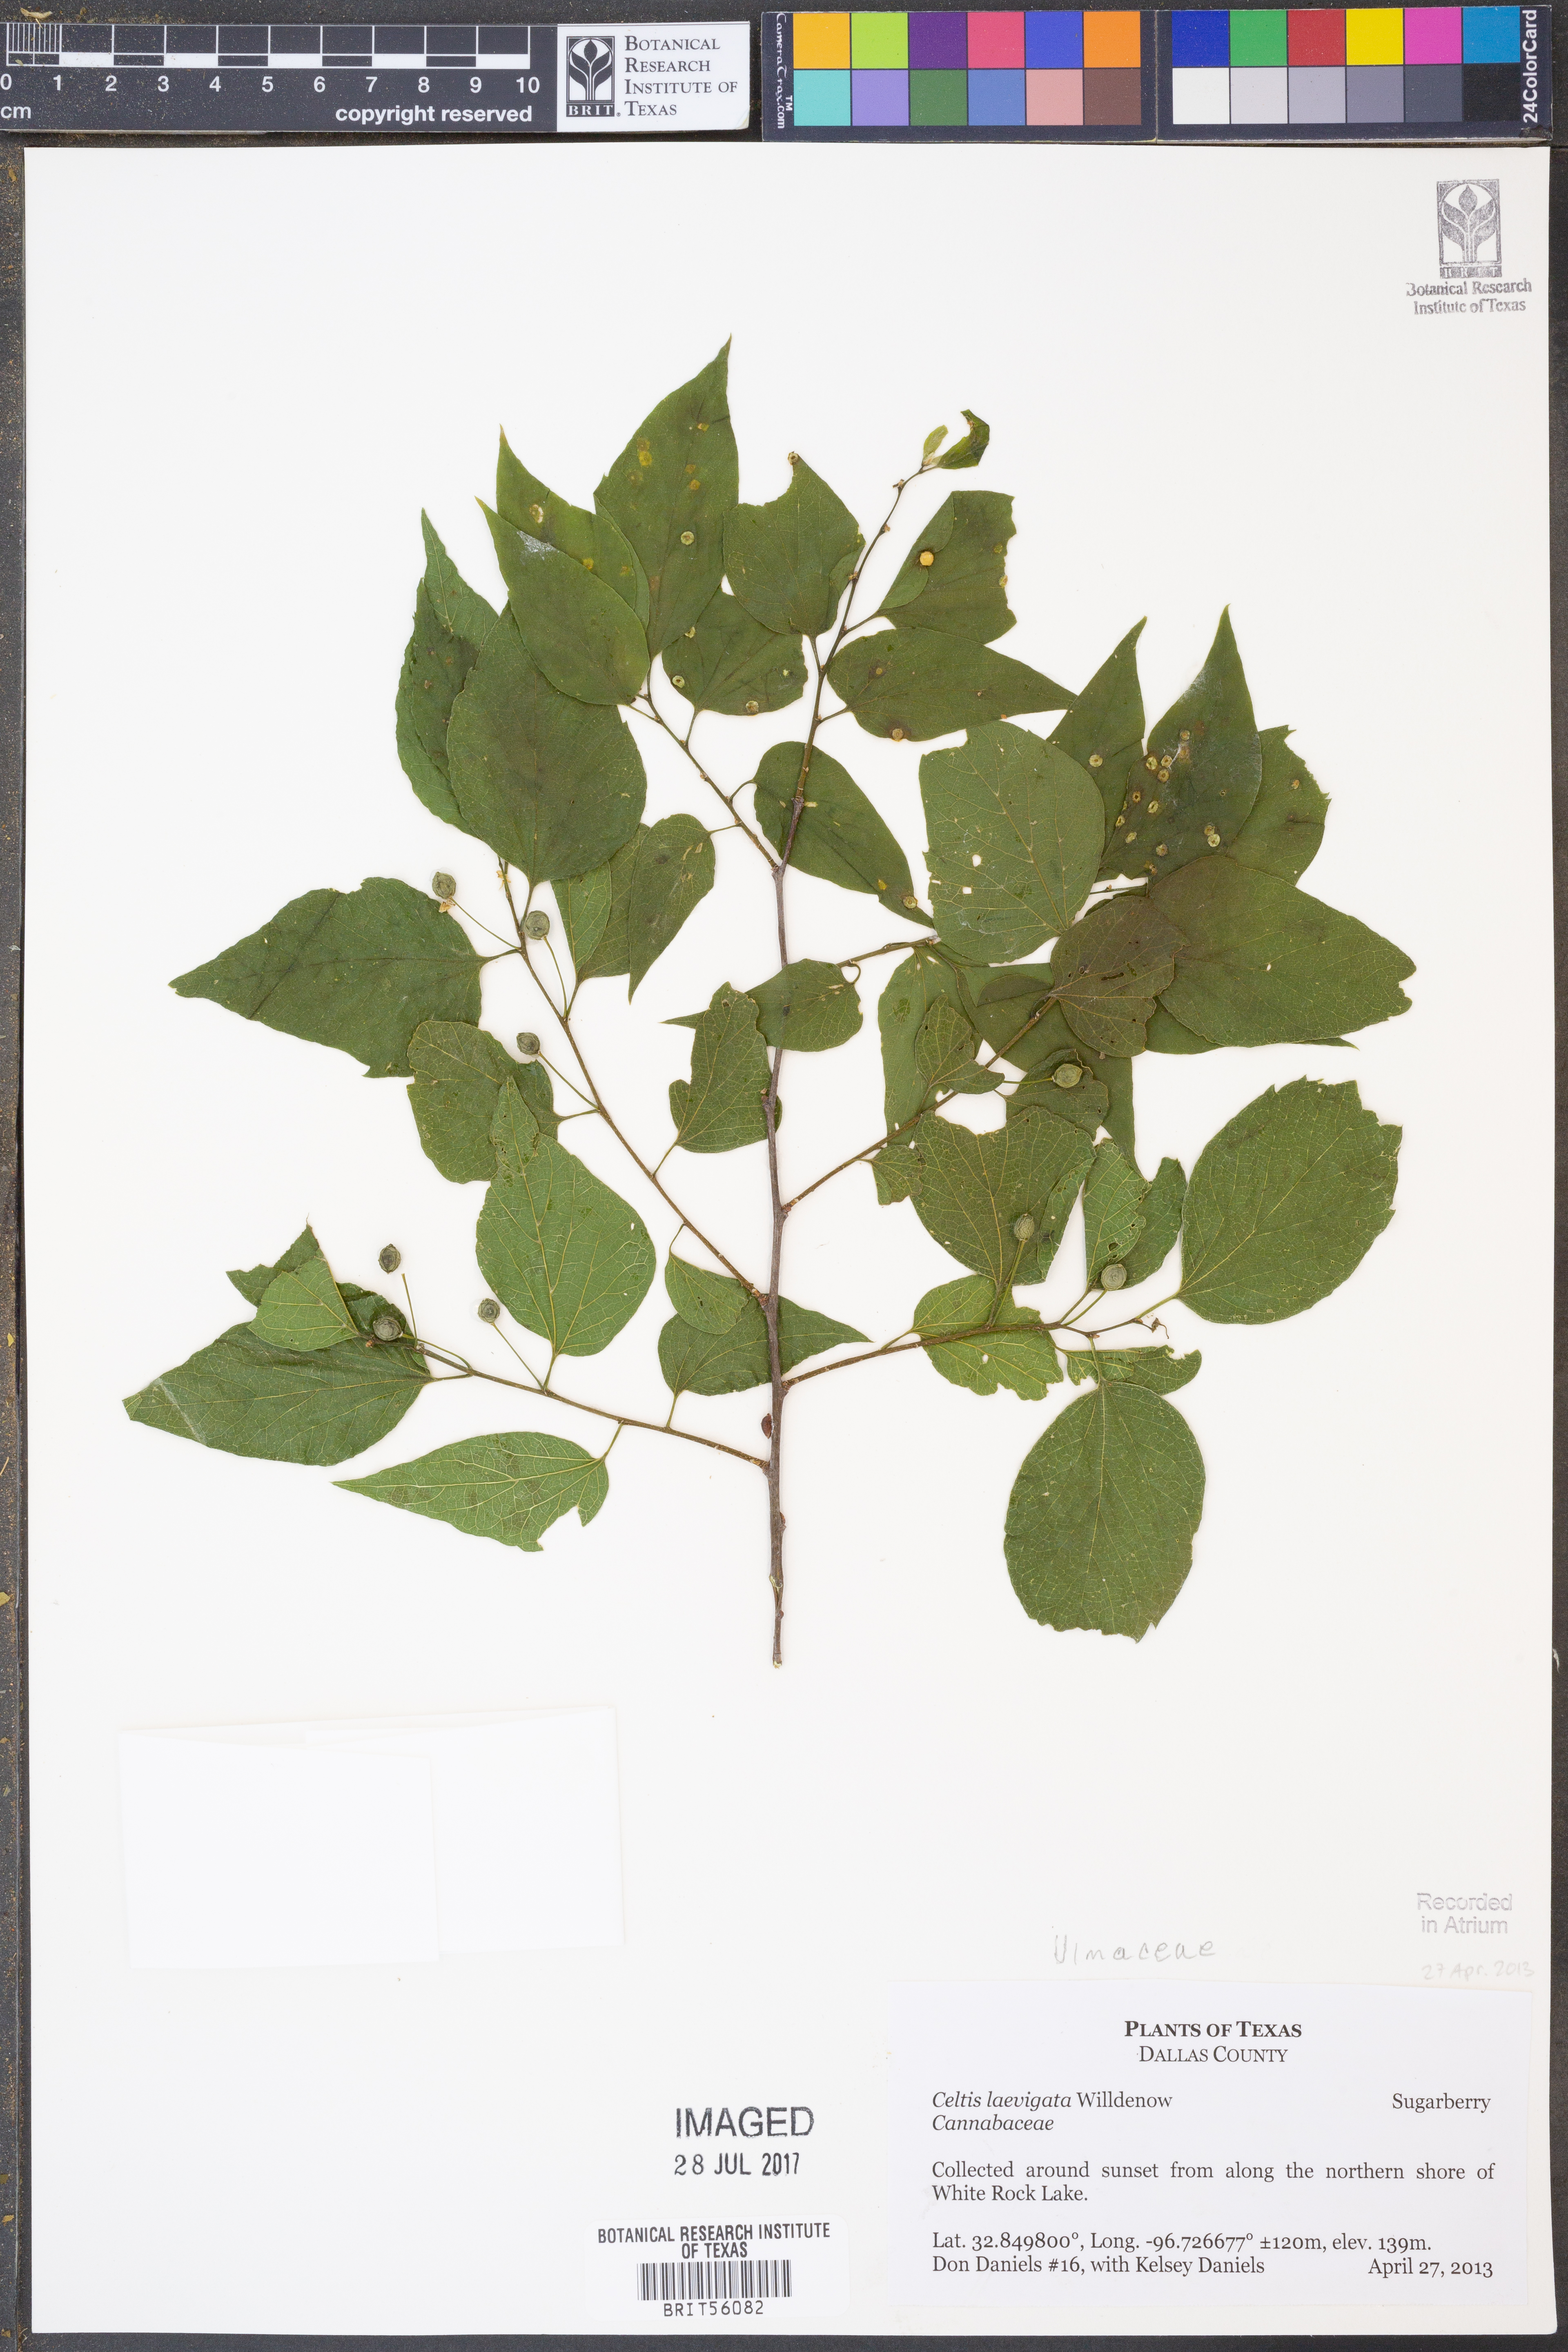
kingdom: Plantae
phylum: Tracheophyta
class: Magnoliopsida
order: Rosales
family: Cannabaceae
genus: Celtis
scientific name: Celtis laevigata
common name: Sugarberry
